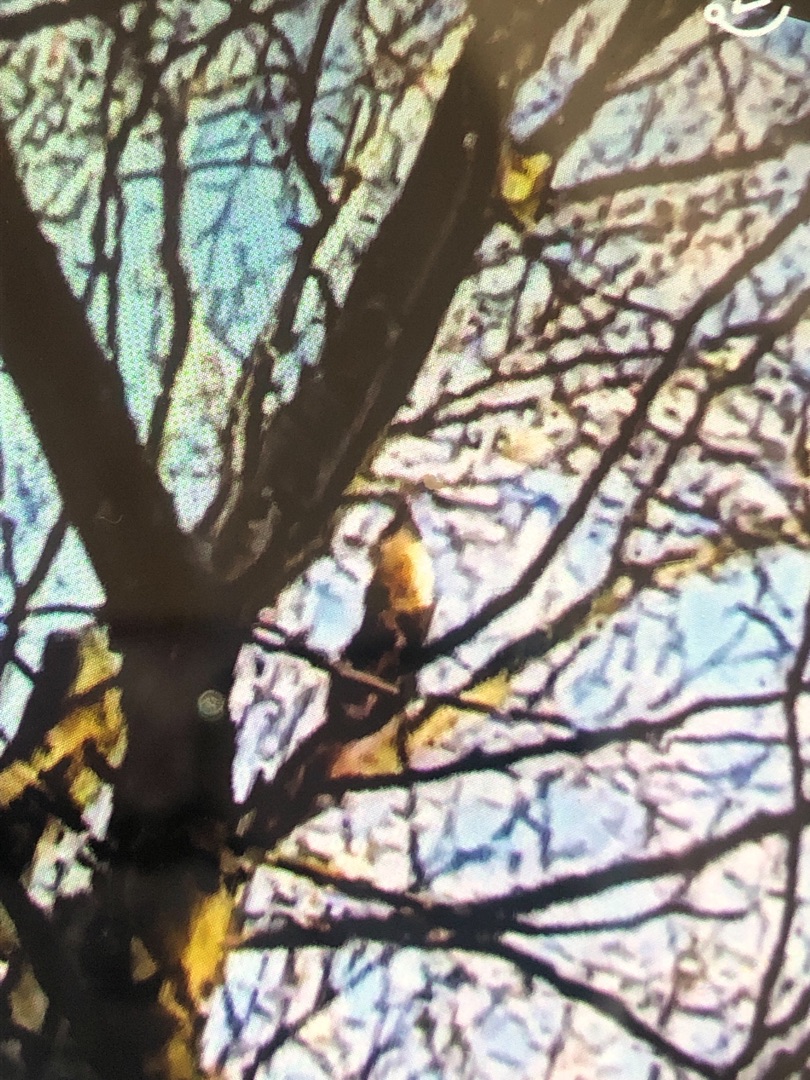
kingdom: Animalia
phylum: Chordata
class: Mammalia
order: Carnivora
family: Mustelidae
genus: Martes
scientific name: Martes martes
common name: Skovmår
